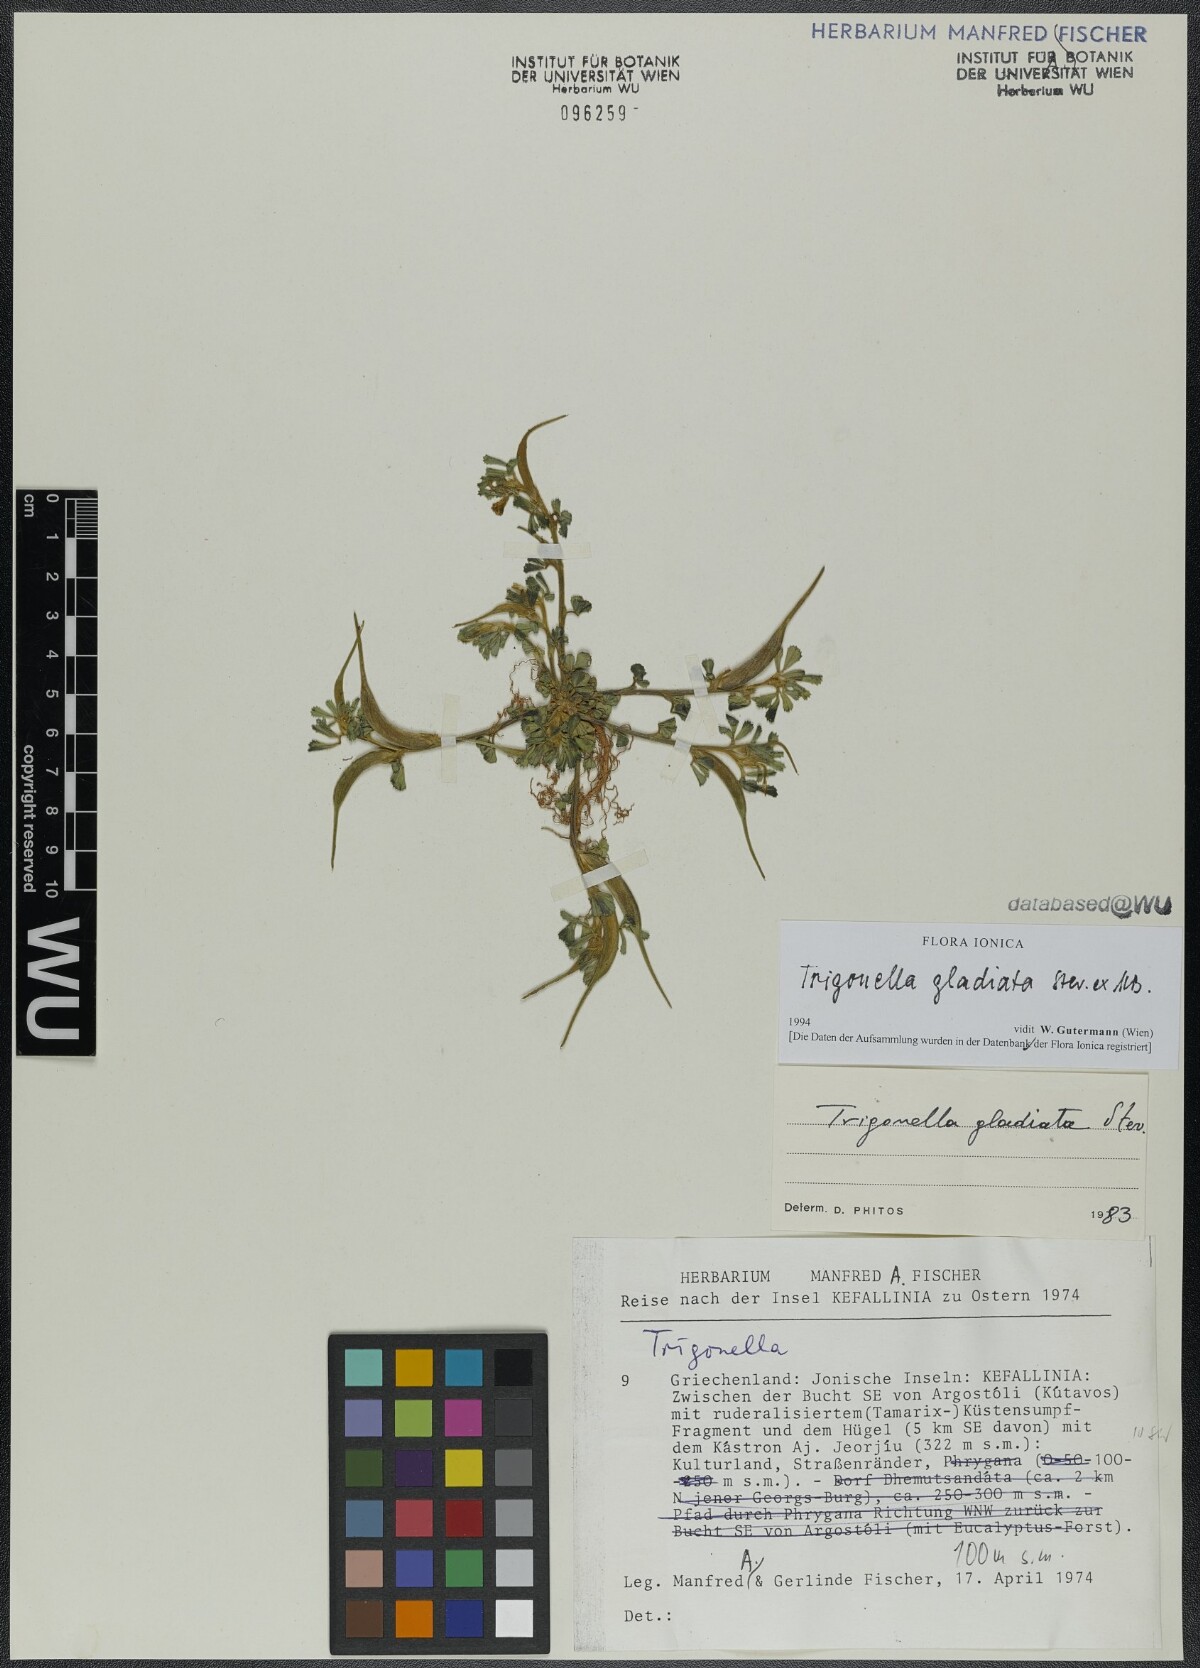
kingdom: Plantae
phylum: Tracheophyta
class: Magnoliopsida
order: Fabales
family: Fabaceae
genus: Trigonella
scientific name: Trigonella gladiata
